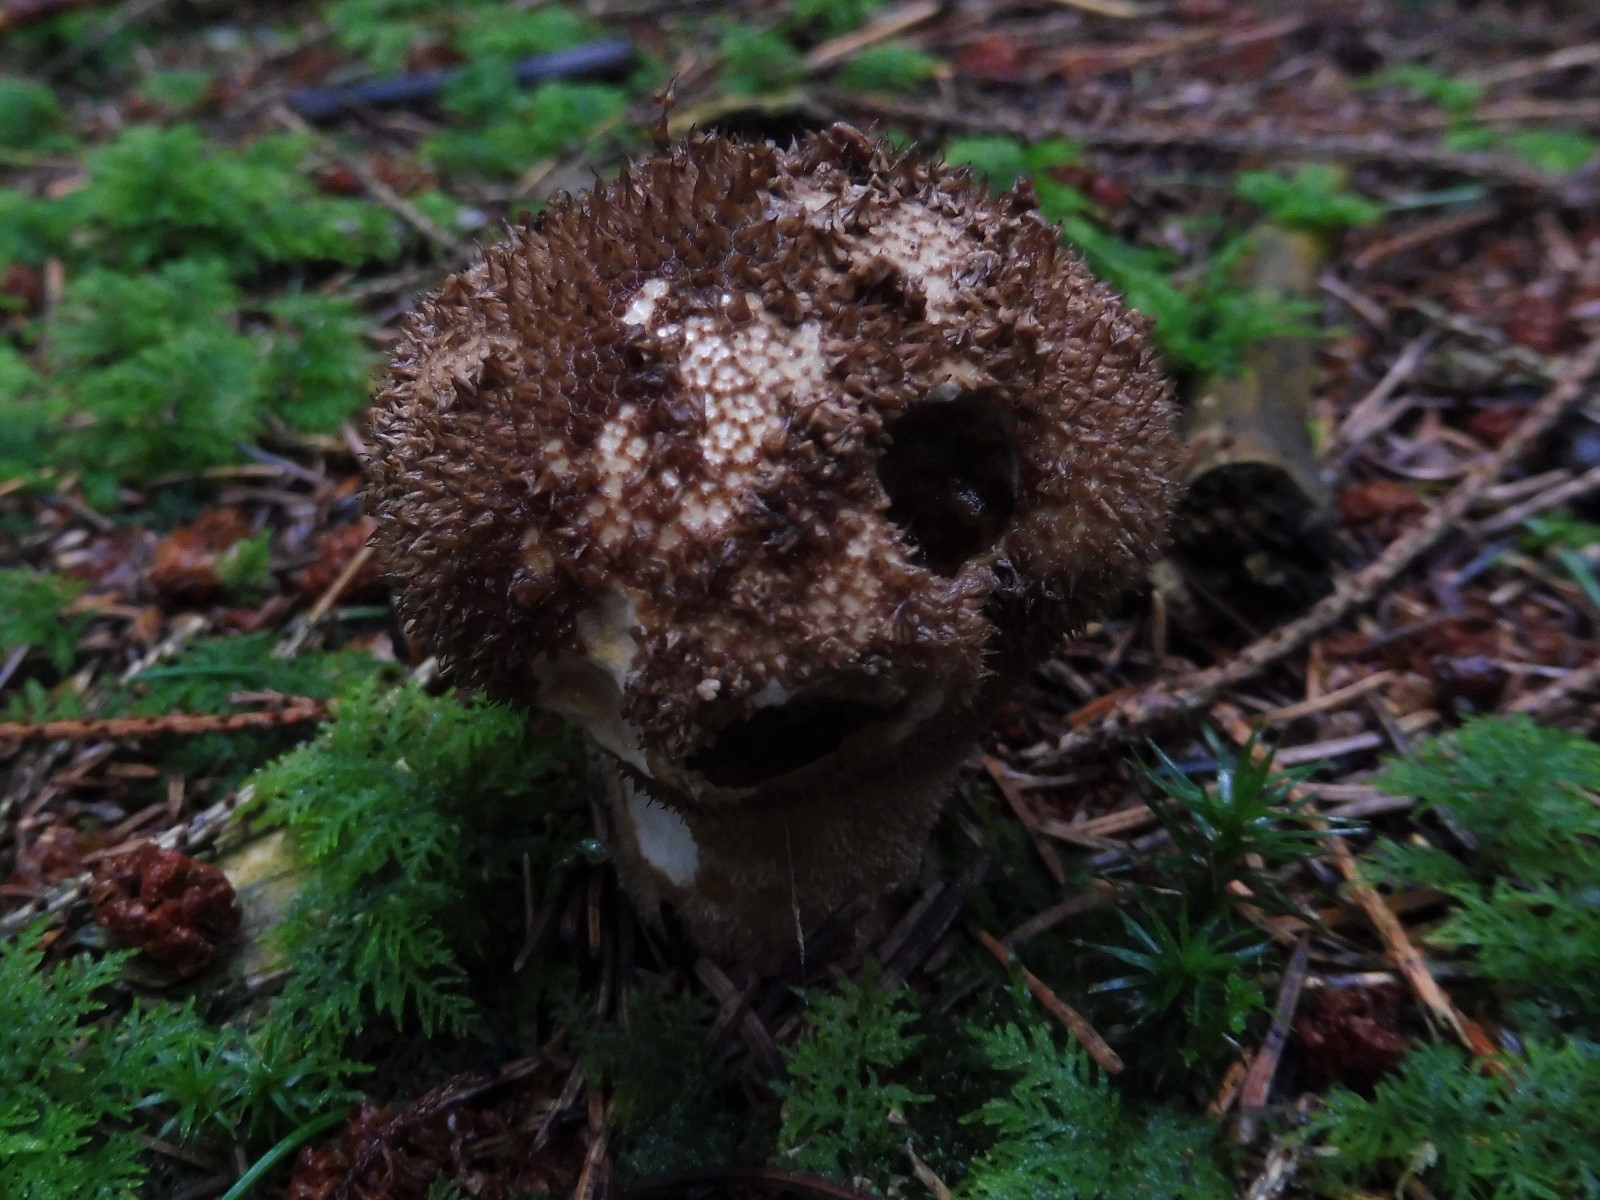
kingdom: Fungi
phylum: Basidiomycota
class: Agaricomycetes
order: Agaricales
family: Lycoperdaceae
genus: Lycoperdon
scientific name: Lycoperdon nigrescens
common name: sortagtig støvbold
